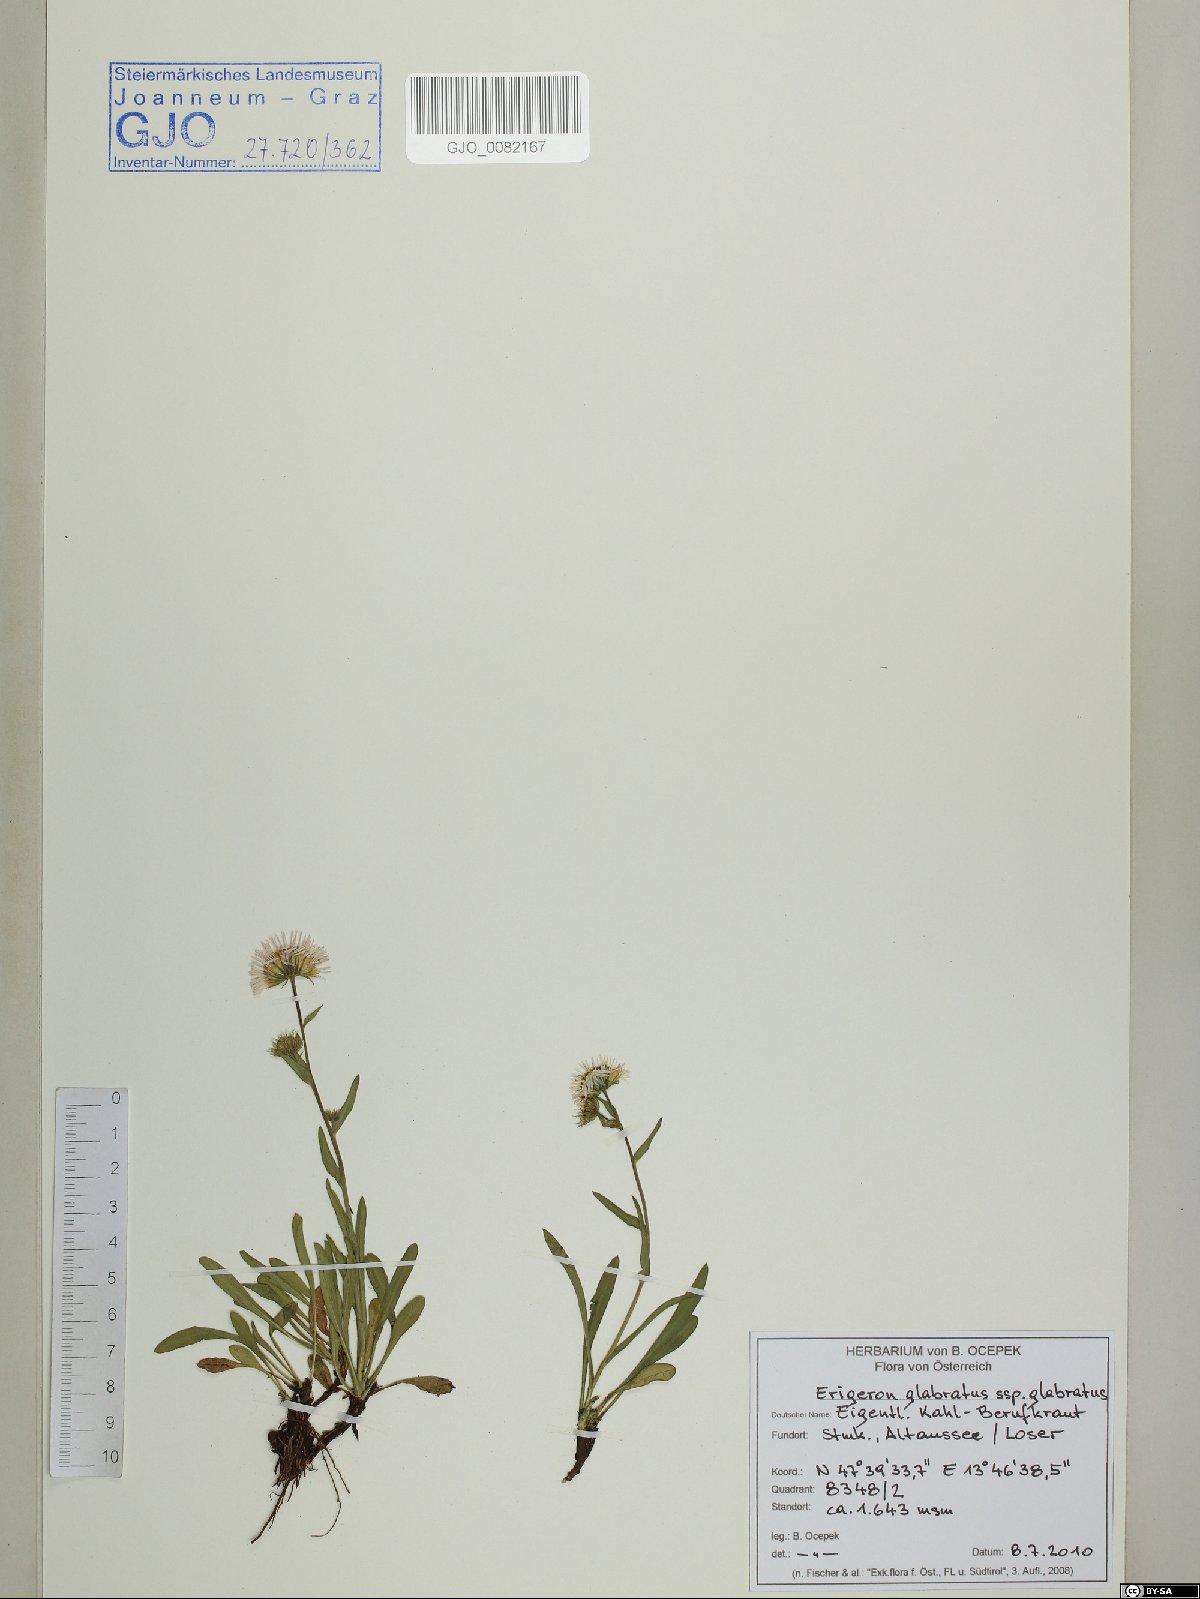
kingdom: Plantae
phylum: Tracheophyta
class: Magnoliopsida
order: Asterales
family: Asteraceae
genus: Erigeron
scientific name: Erigeron glabratus
